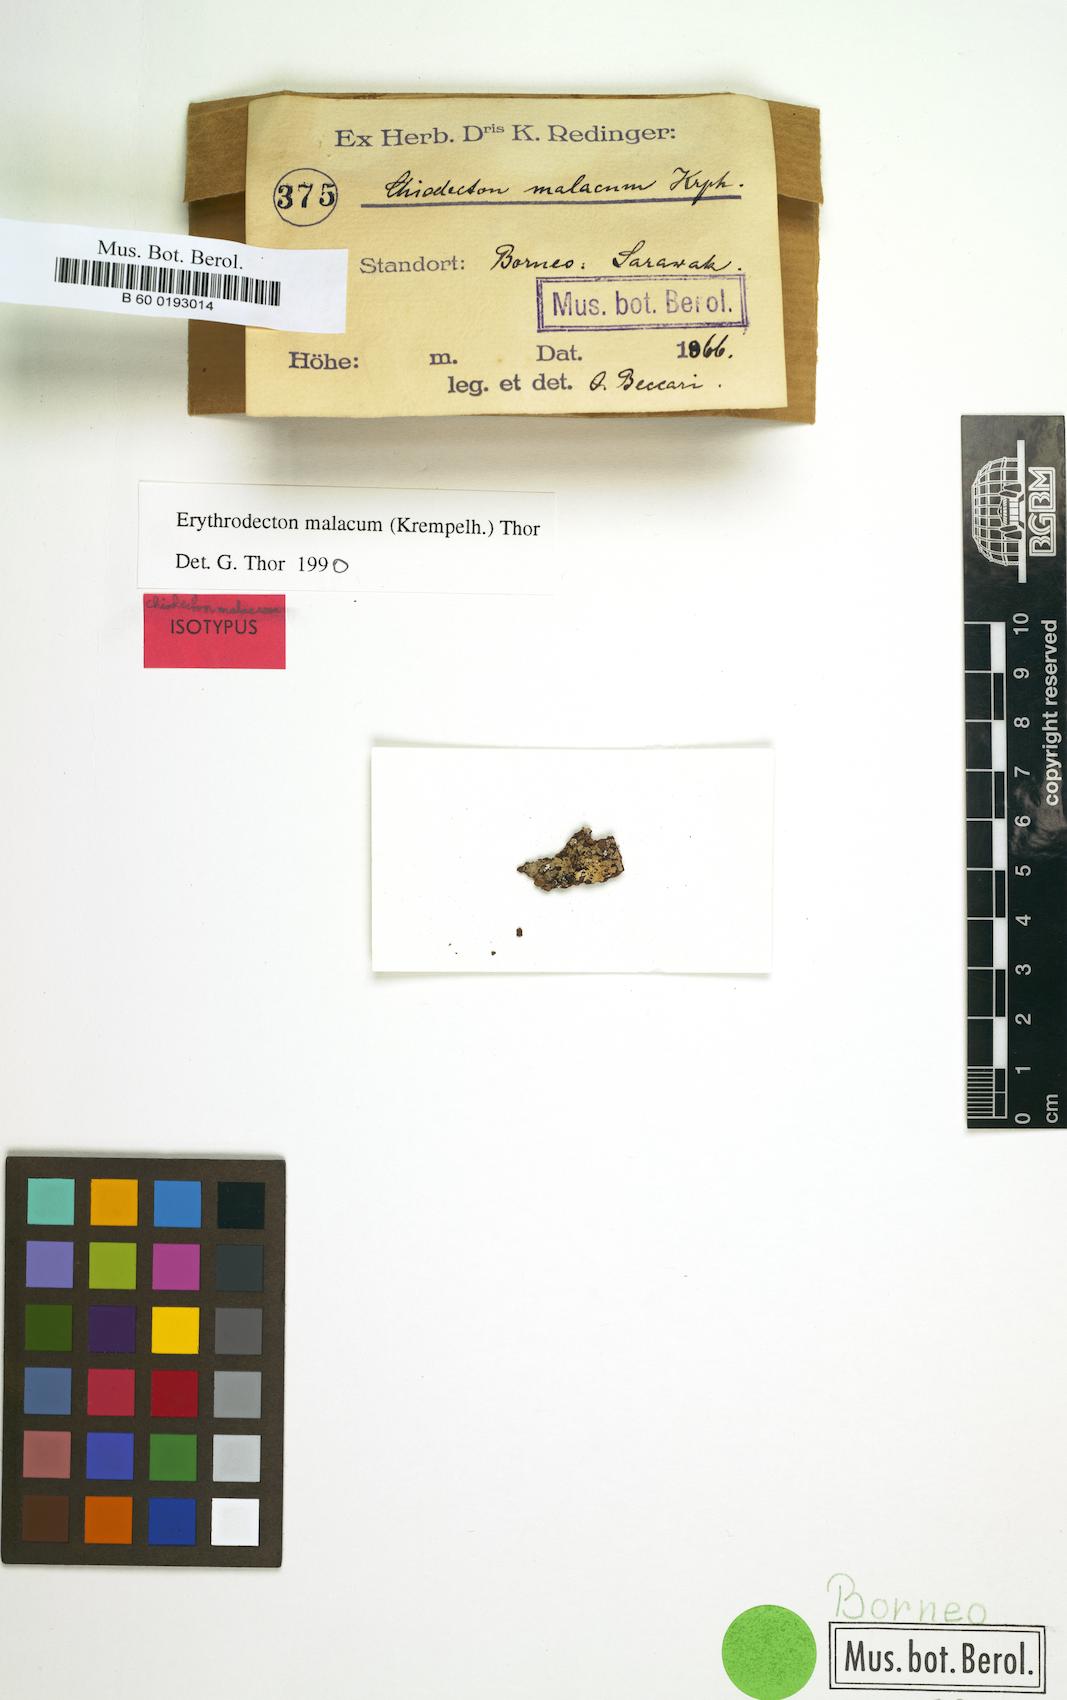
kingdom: Fungi
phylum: Ascomycota
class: Arthoniomycetes
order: Arthoniales
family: Roccellaceae
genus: Erythrodecton
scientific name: Erythrodecton malacum
